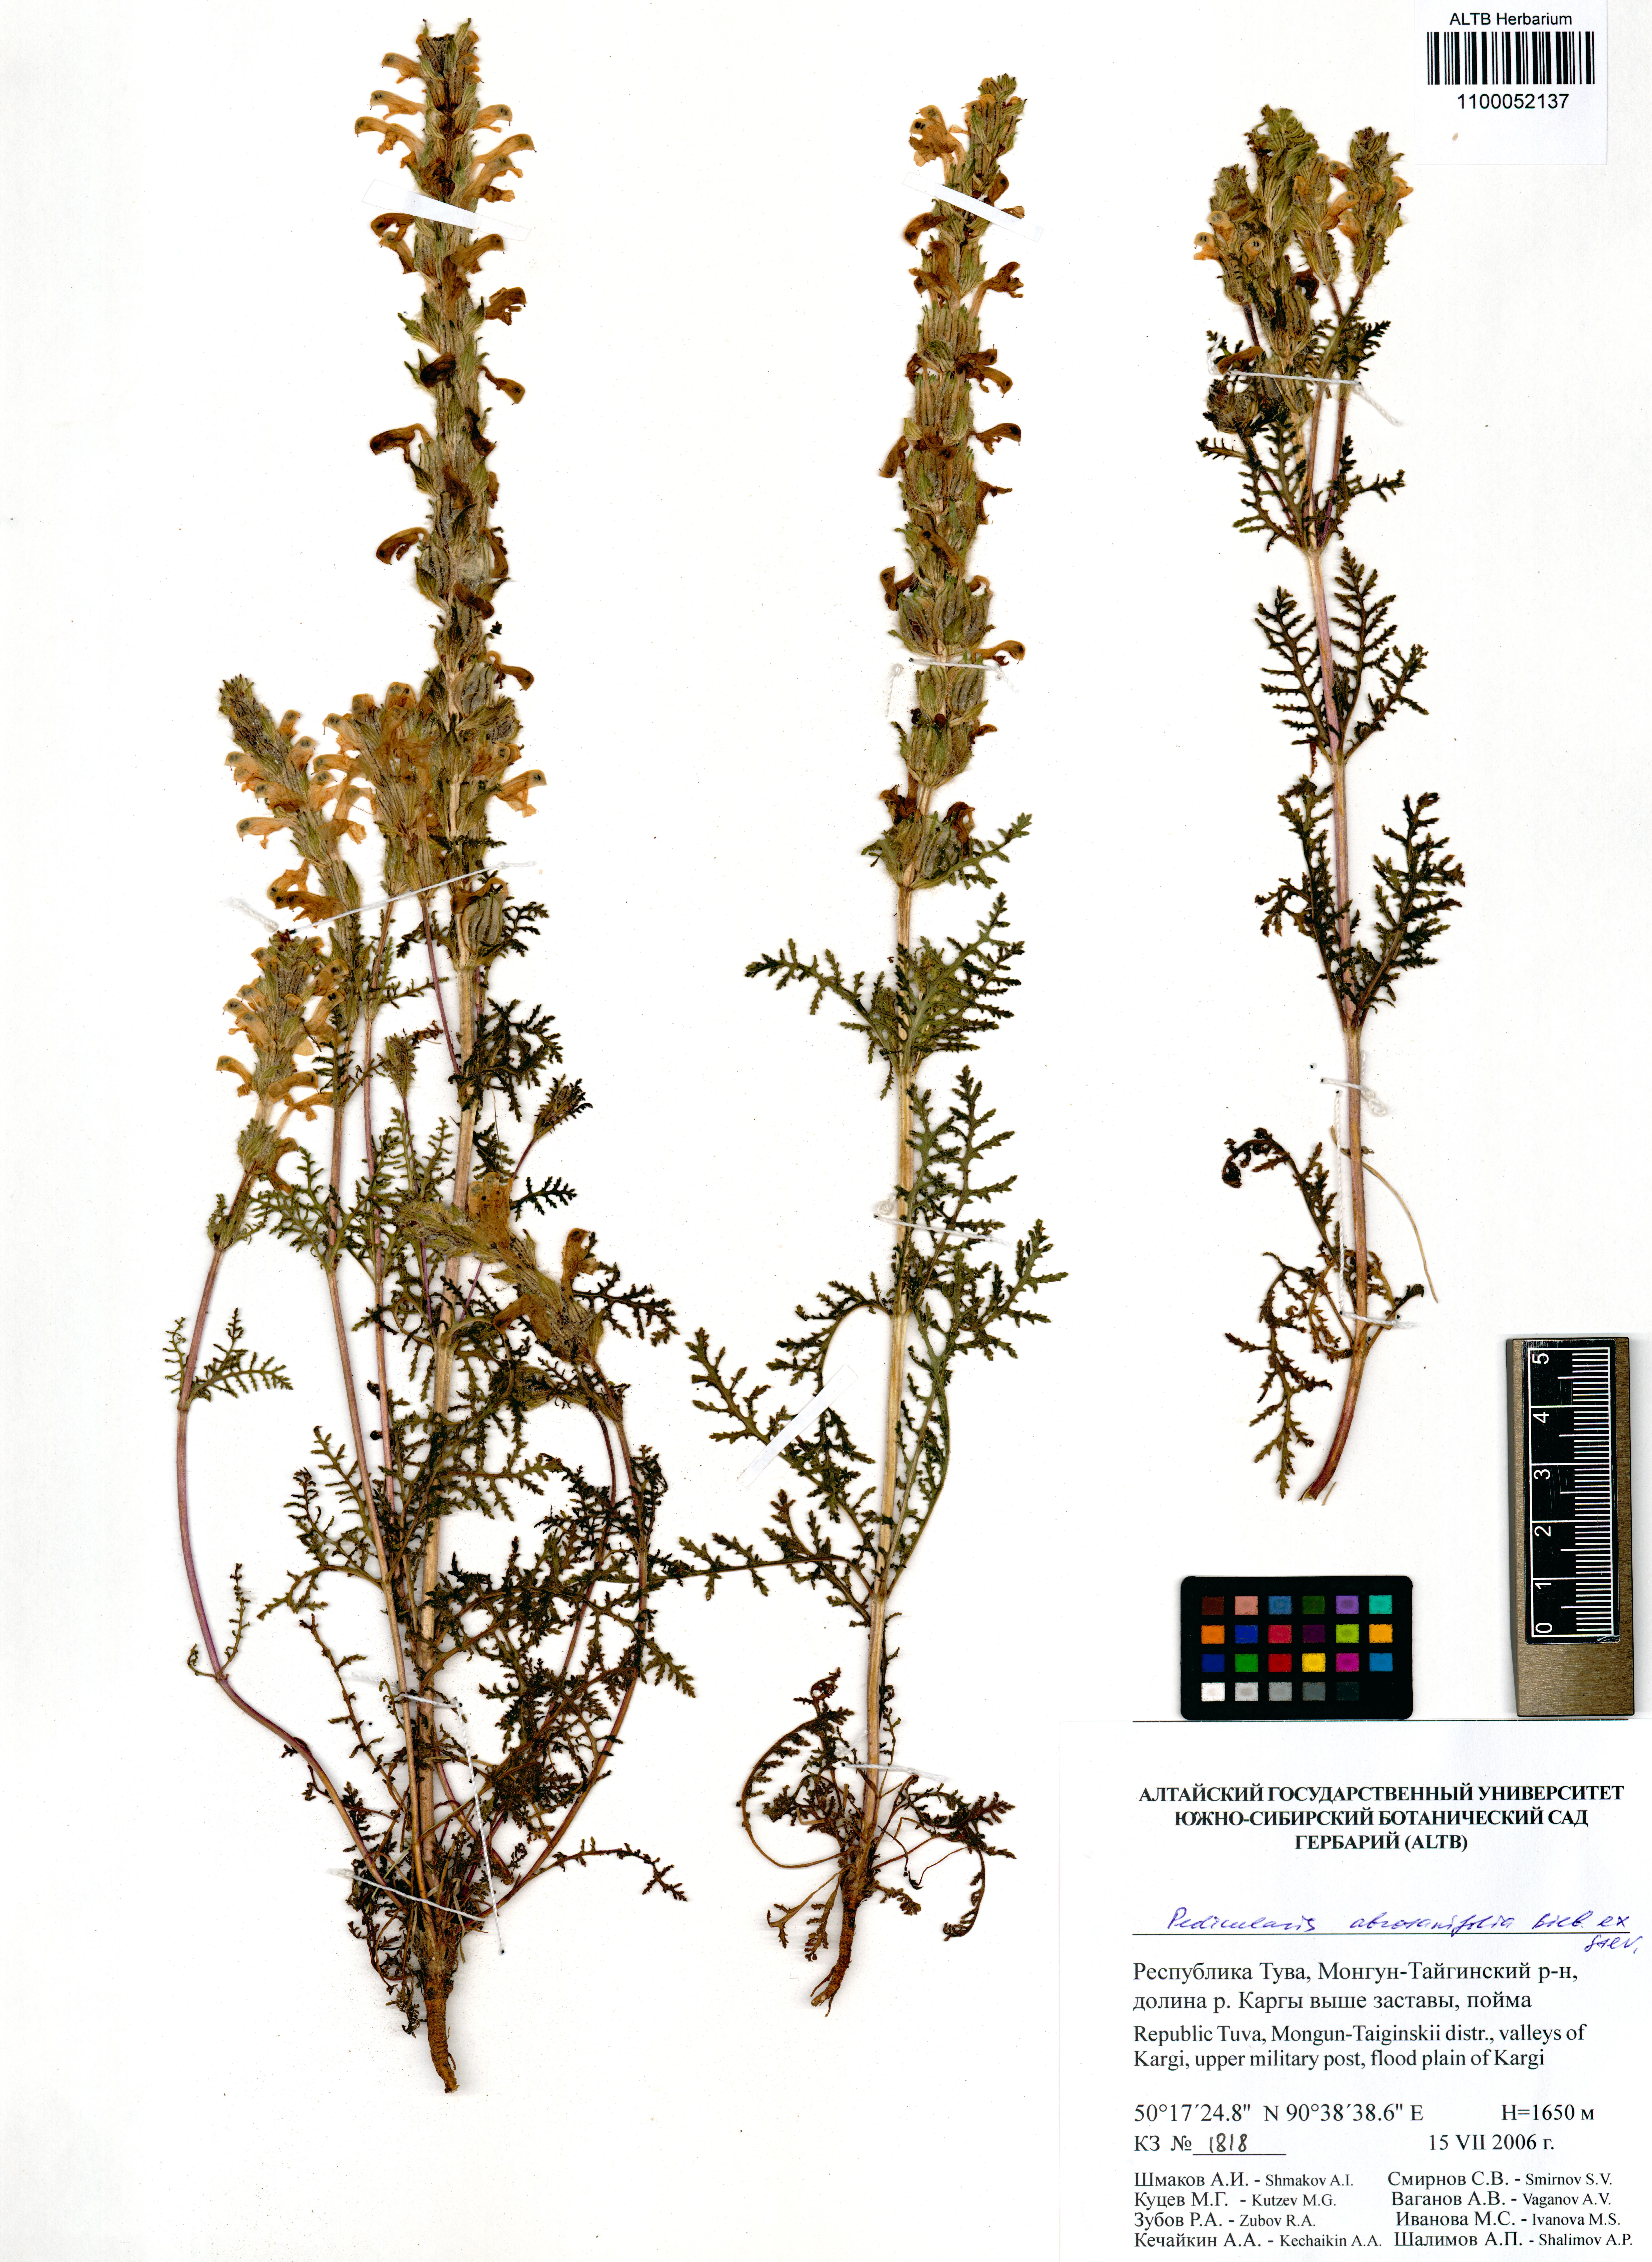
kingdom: Plantae
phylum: Tracheophyta
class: Magnoliopsida
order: Lamiales
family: Orobanchaceae
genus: Pedicularis
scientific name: Pedicularis abrotanifolia
